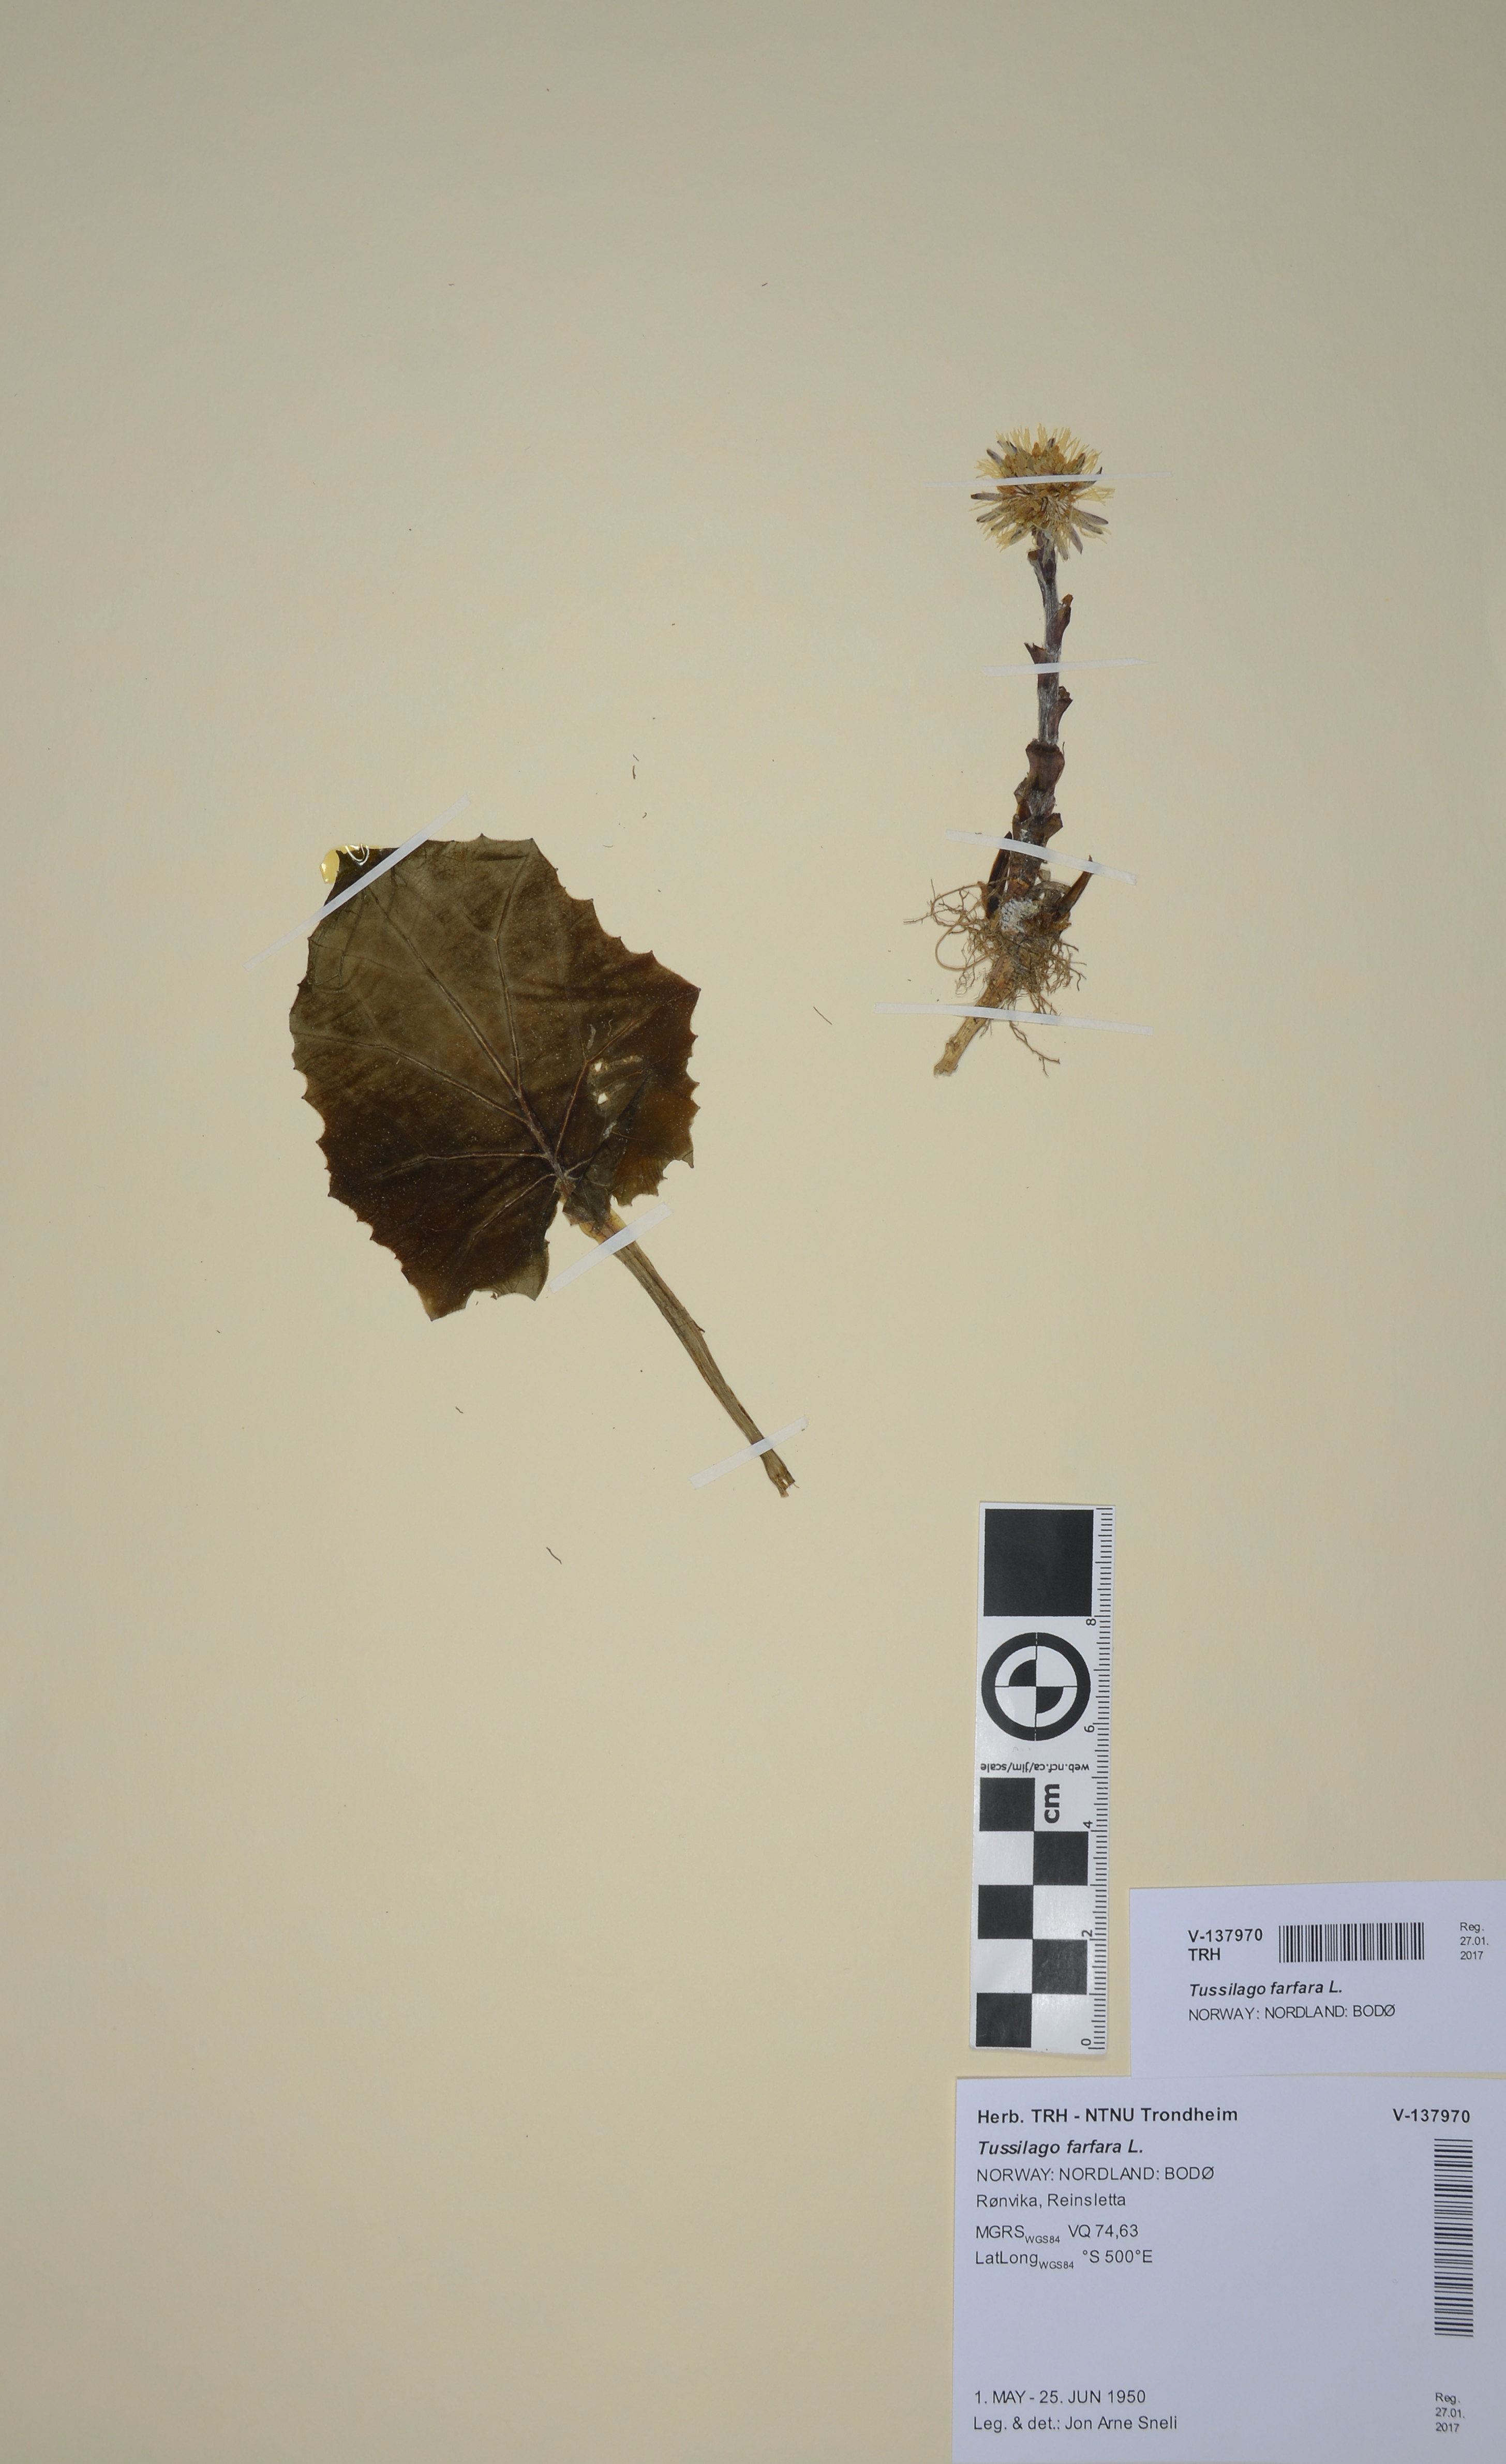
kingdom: Plantae
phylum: Tracheophyta
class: Magnoliopsida
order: Asterales
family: Asteraceae
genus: Tussilago
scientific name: Tussilago farfara
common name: Coltsfoot
